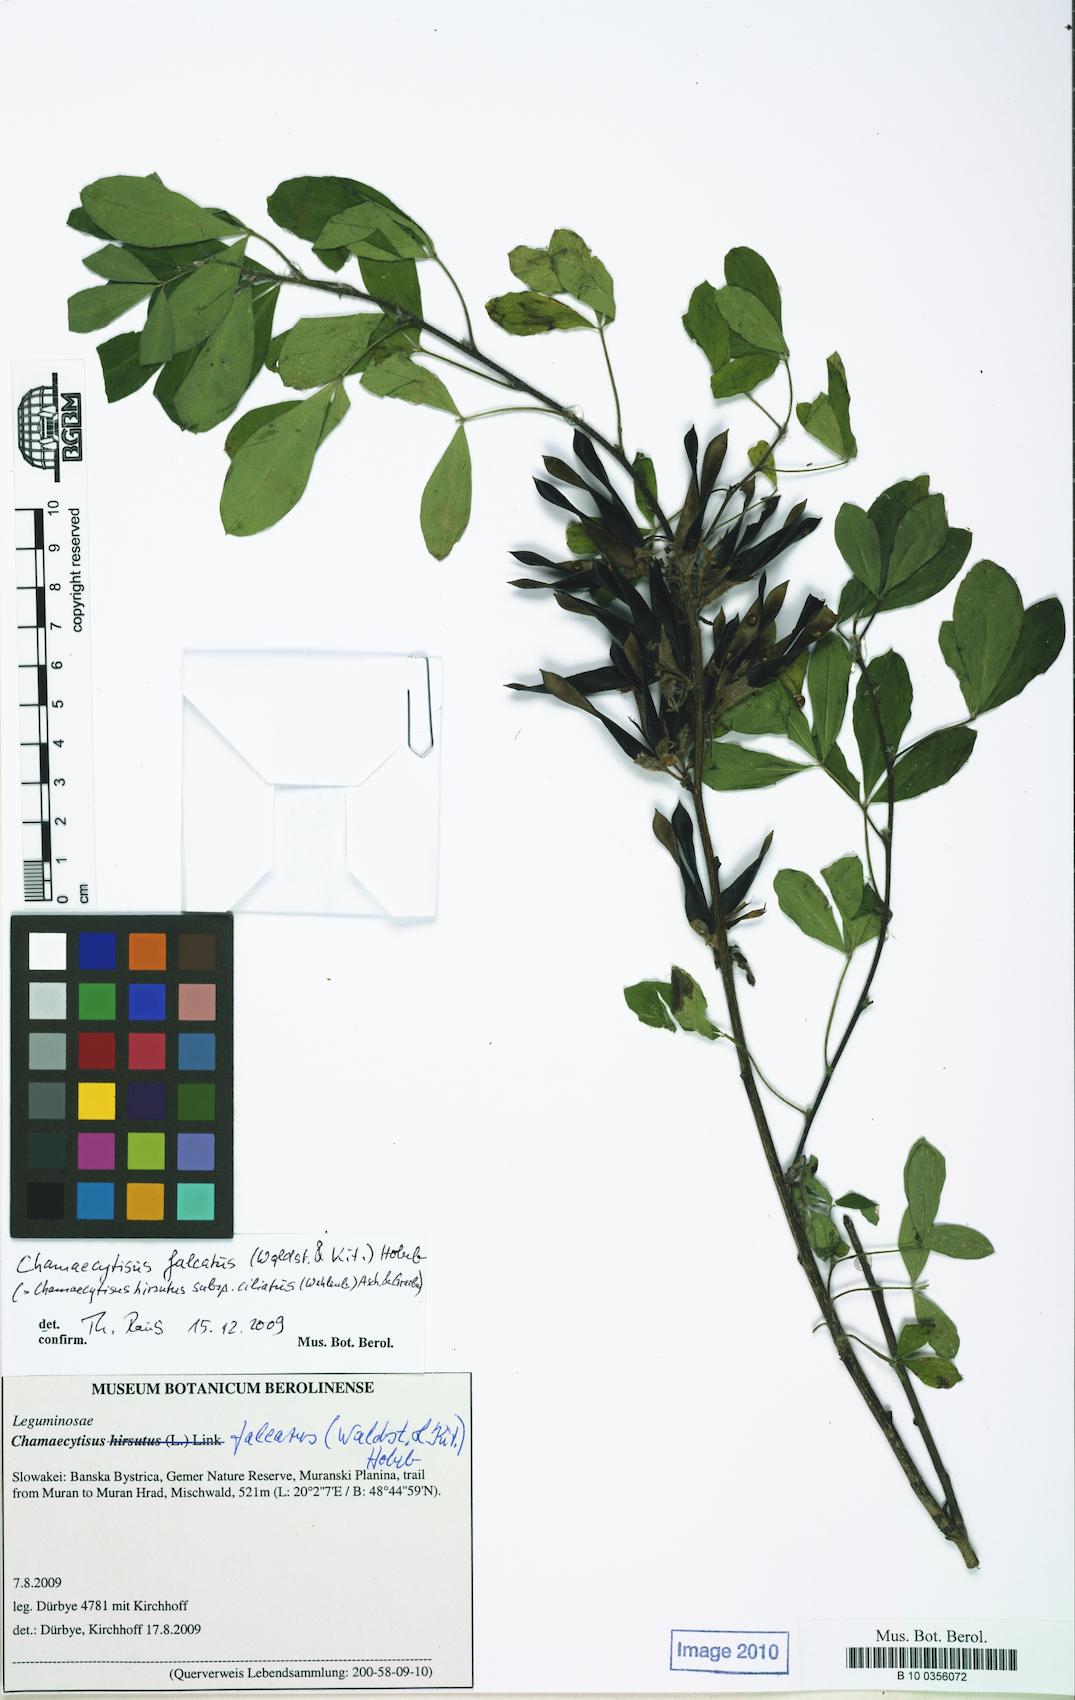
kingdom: Plantae
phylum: Tracheophyta
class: Magnoliopsida
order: Fabales
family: Fabaceae
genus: Chamaecytisus
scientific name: Chamaecytisus hirsutus
